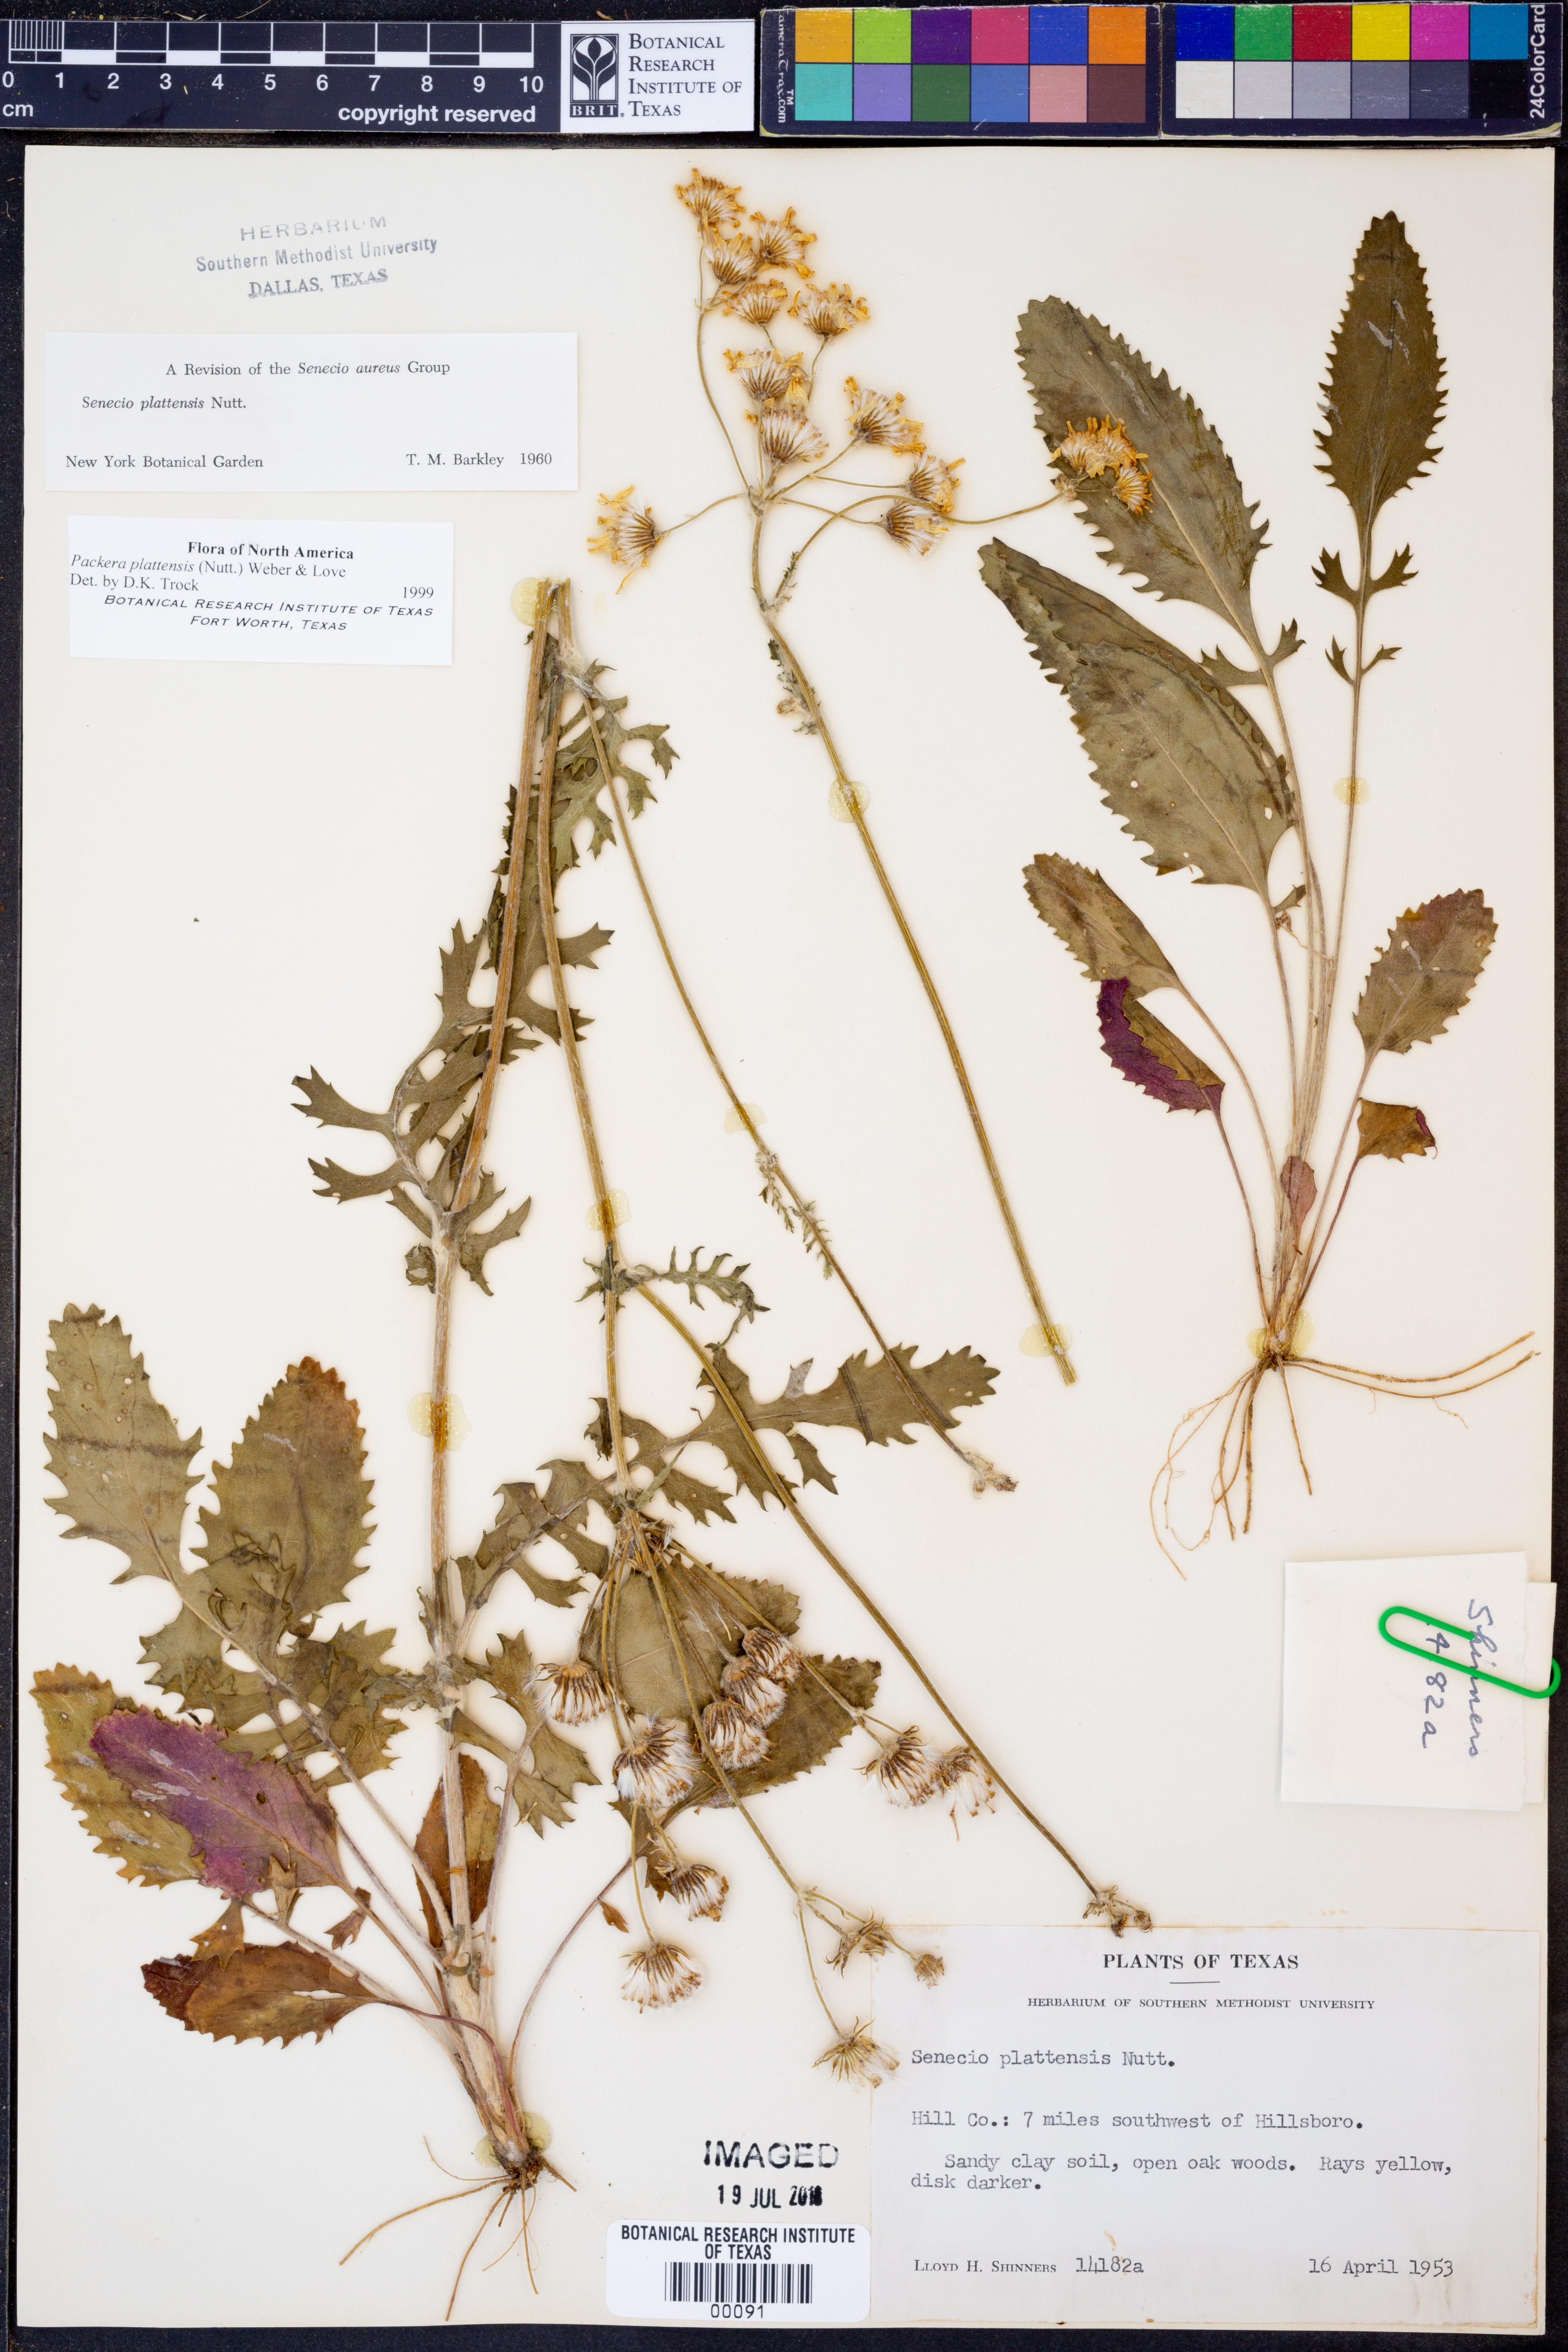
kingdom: Plantae
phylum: Tracheophyta
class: Magnoliopsida
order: Asterales
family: Asteraceae
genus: Packera
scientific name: Packera plattensis
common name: Prairie groundsel
